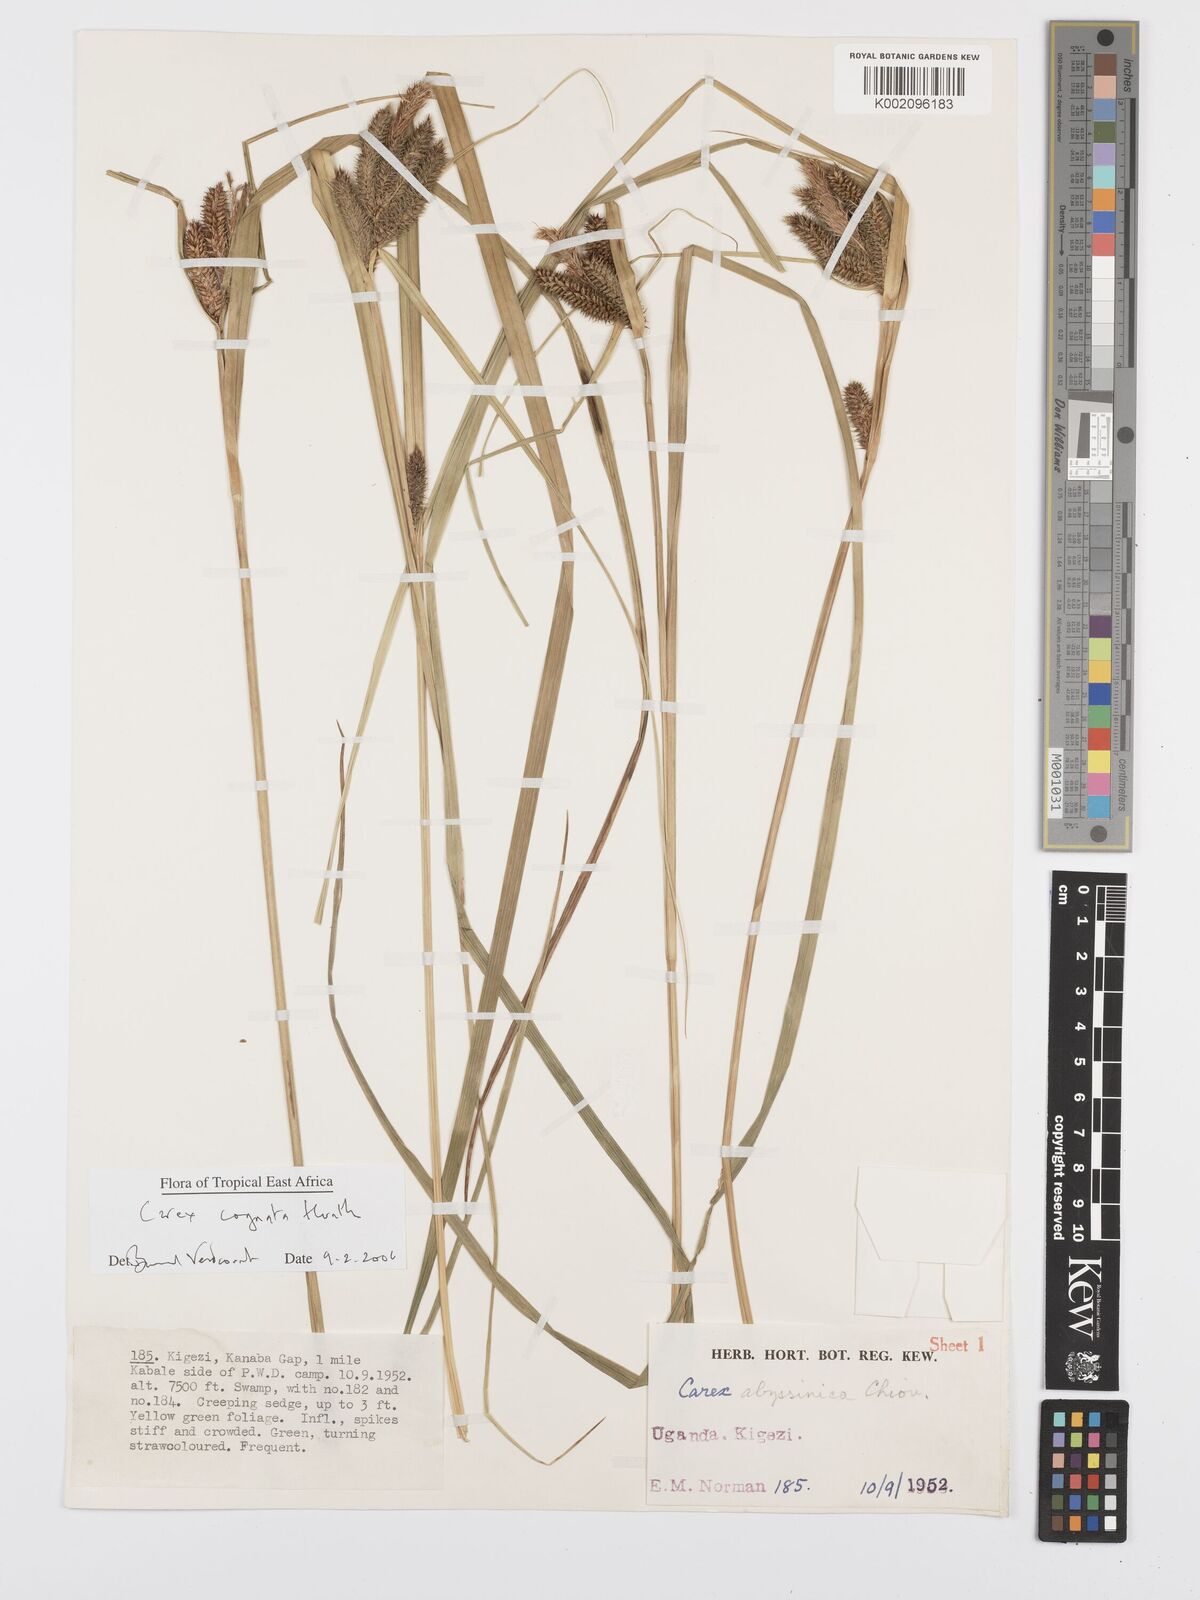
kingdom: Plantae
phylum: Tracheophyta
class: Liliopsida
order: Poales
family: Cyperaceae
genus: Carex
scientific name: Carex congolensis
